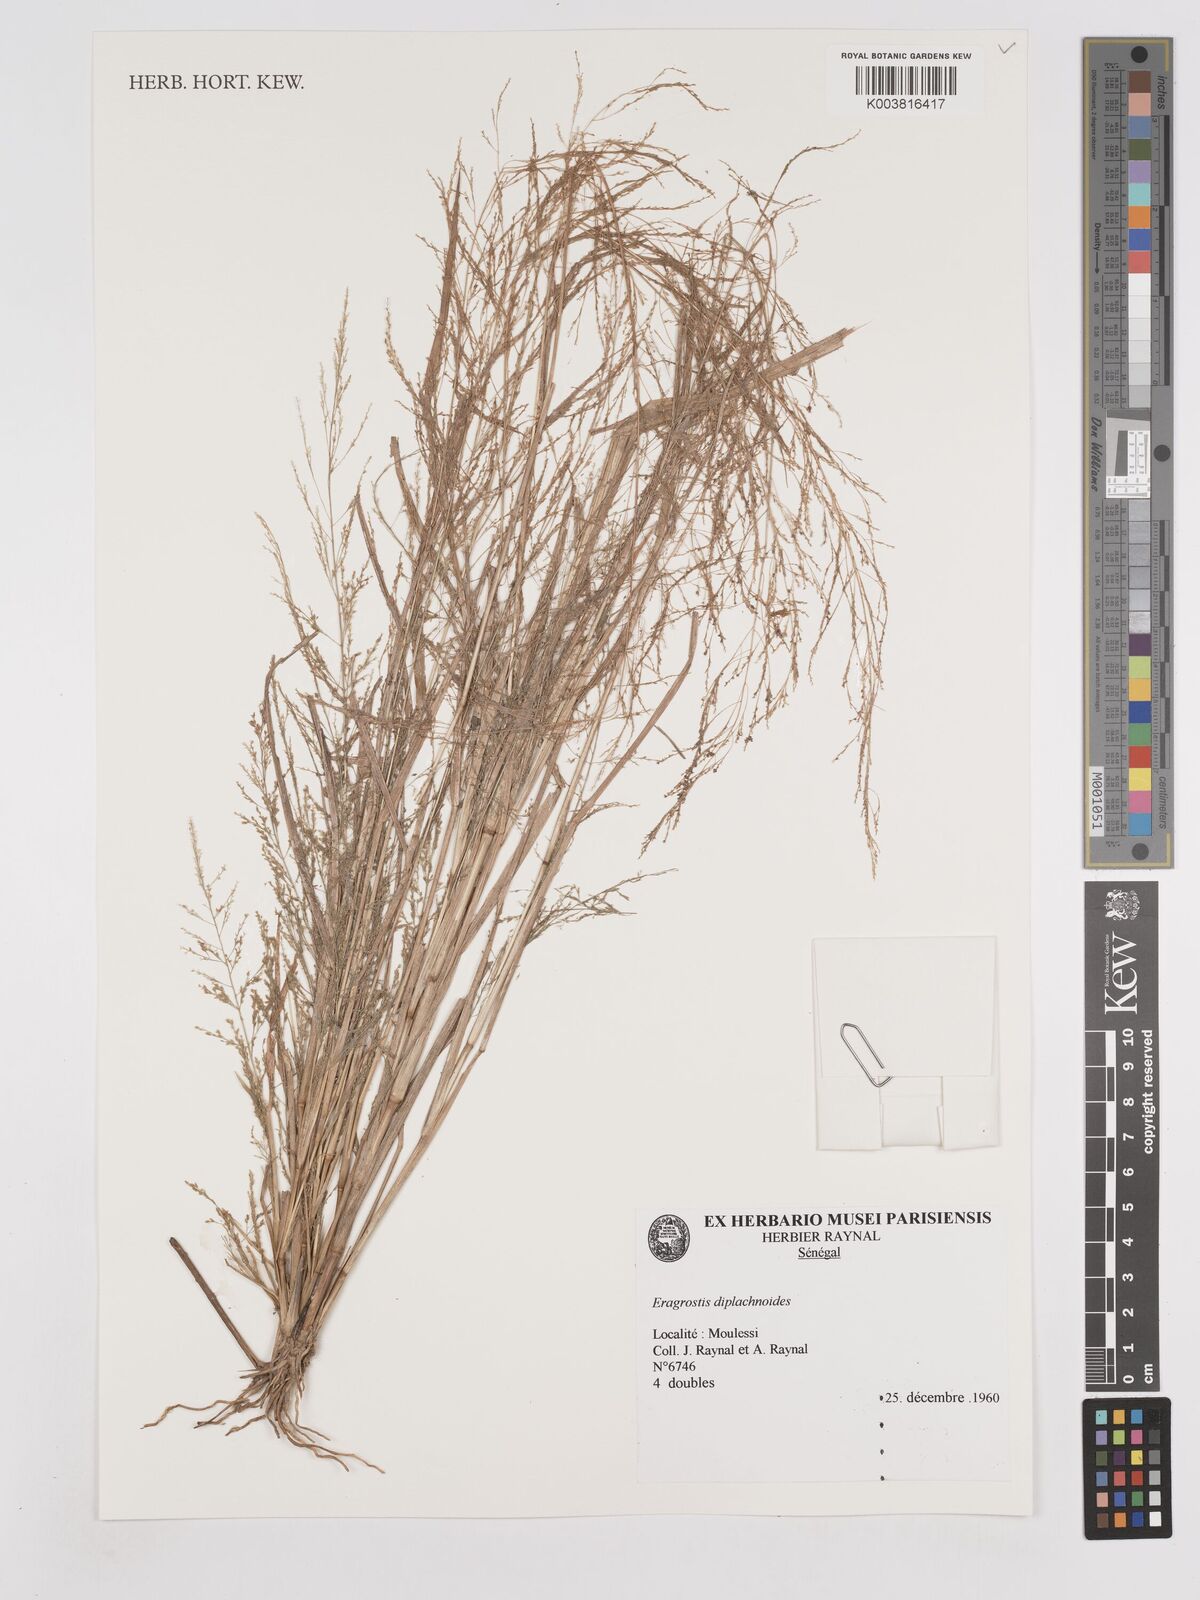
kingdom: Plantae
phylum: Tracheophyta
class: Liliopsida
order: Poales
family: Poaceae
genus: Eragrostis
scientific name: Eragrostis japonica
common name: Pond lovegrass
